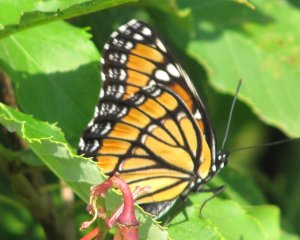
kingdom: Animalia
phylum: Arthropoda
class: Insecta
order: Lepidoptera
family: Nymphalidae
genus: Limenitis
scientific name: Limenitis archippus
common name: Viceroy
